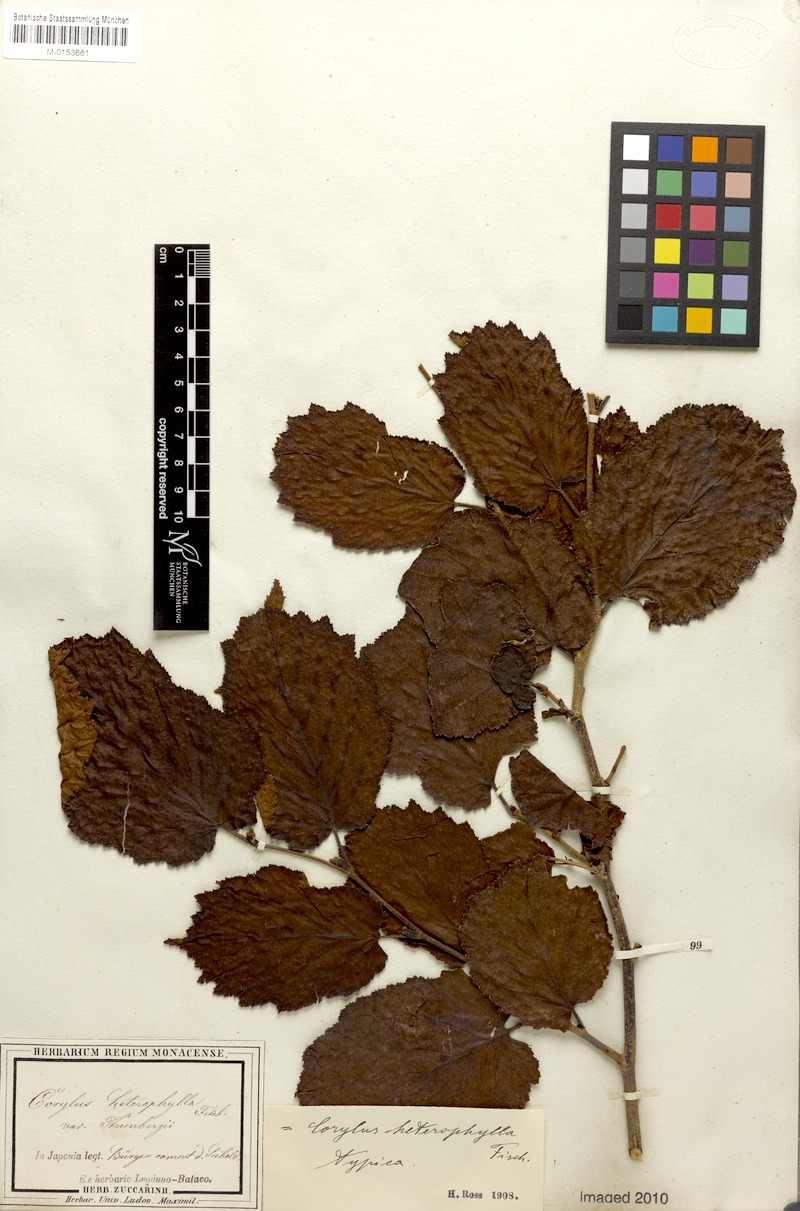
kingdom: Plantae
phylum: Tracheophyta
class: Magnoliopsida
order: Fagales
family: Betulaceae
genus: Corylus
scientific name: Corylus heterophylla
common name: Siberian hazelnut
